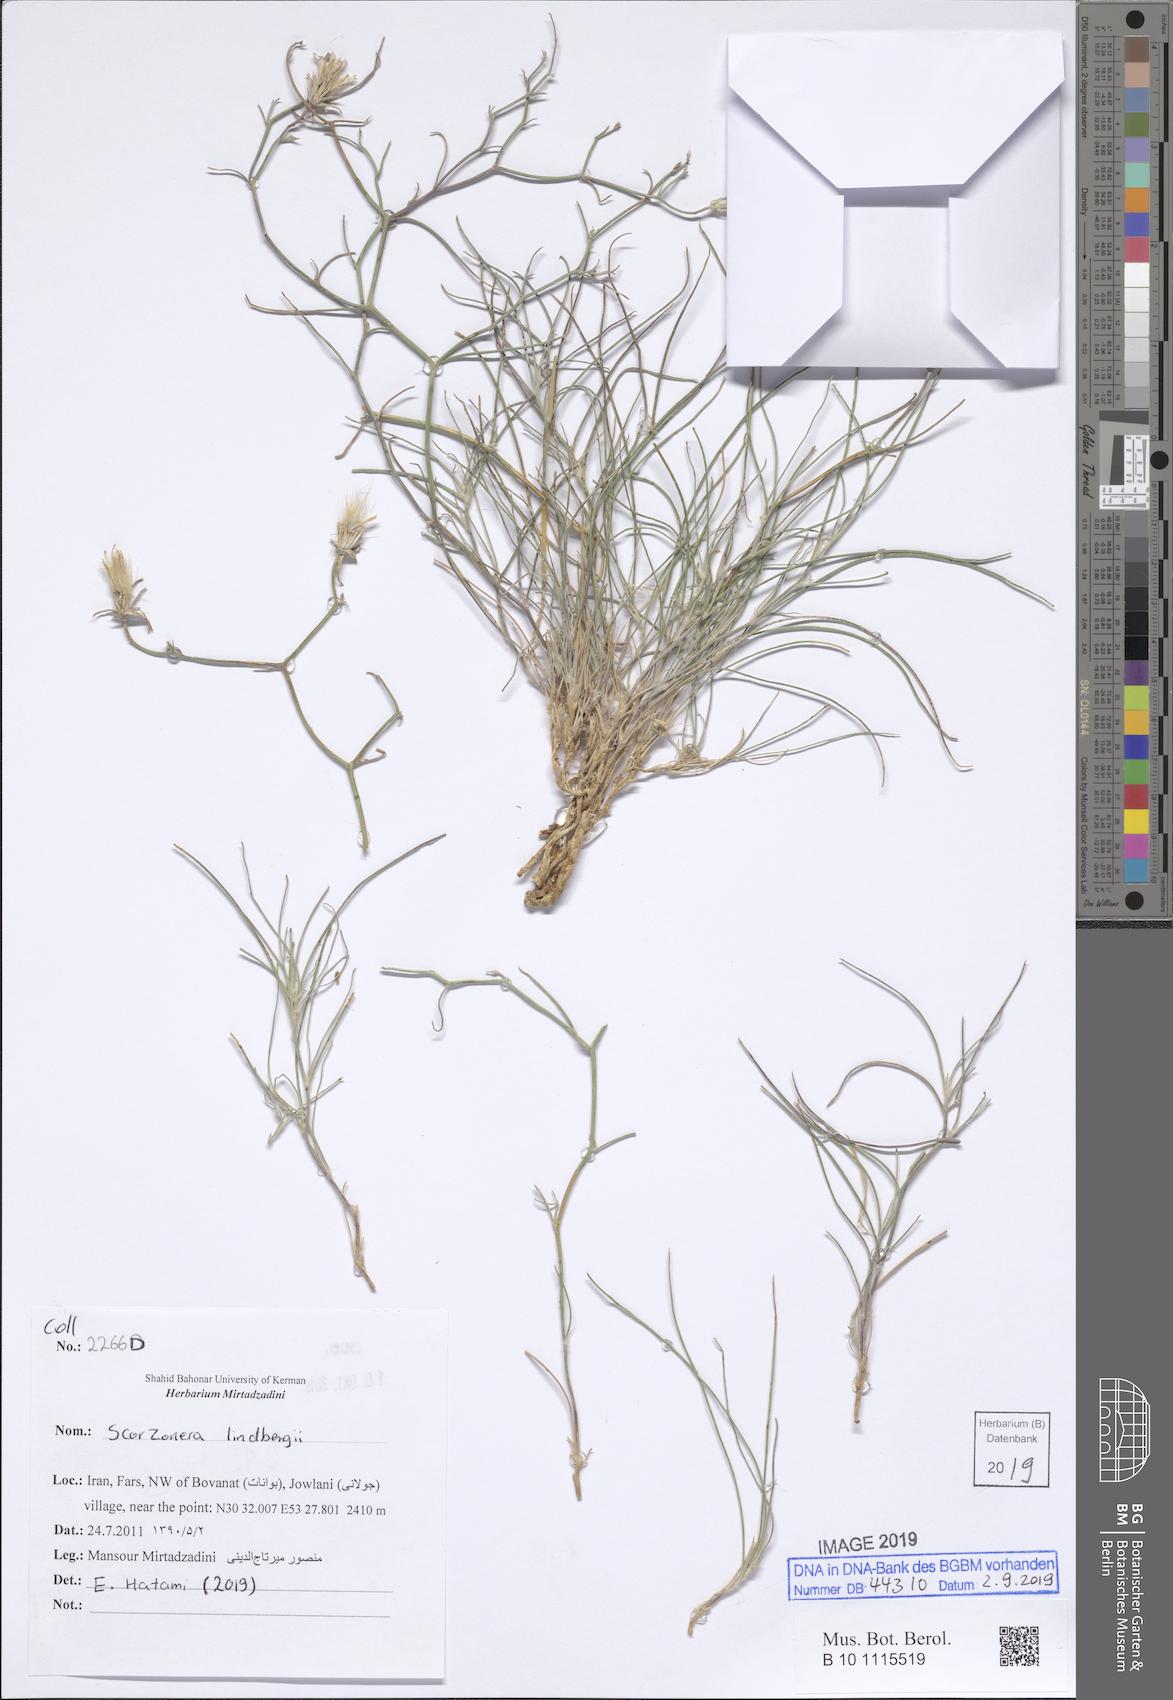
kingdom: Plantae
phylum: Tracheophyta
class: Magnoliopsida
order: Asterales
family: Asteraceae
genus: Ramaliella
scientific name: Ramaliella tortuosissima
